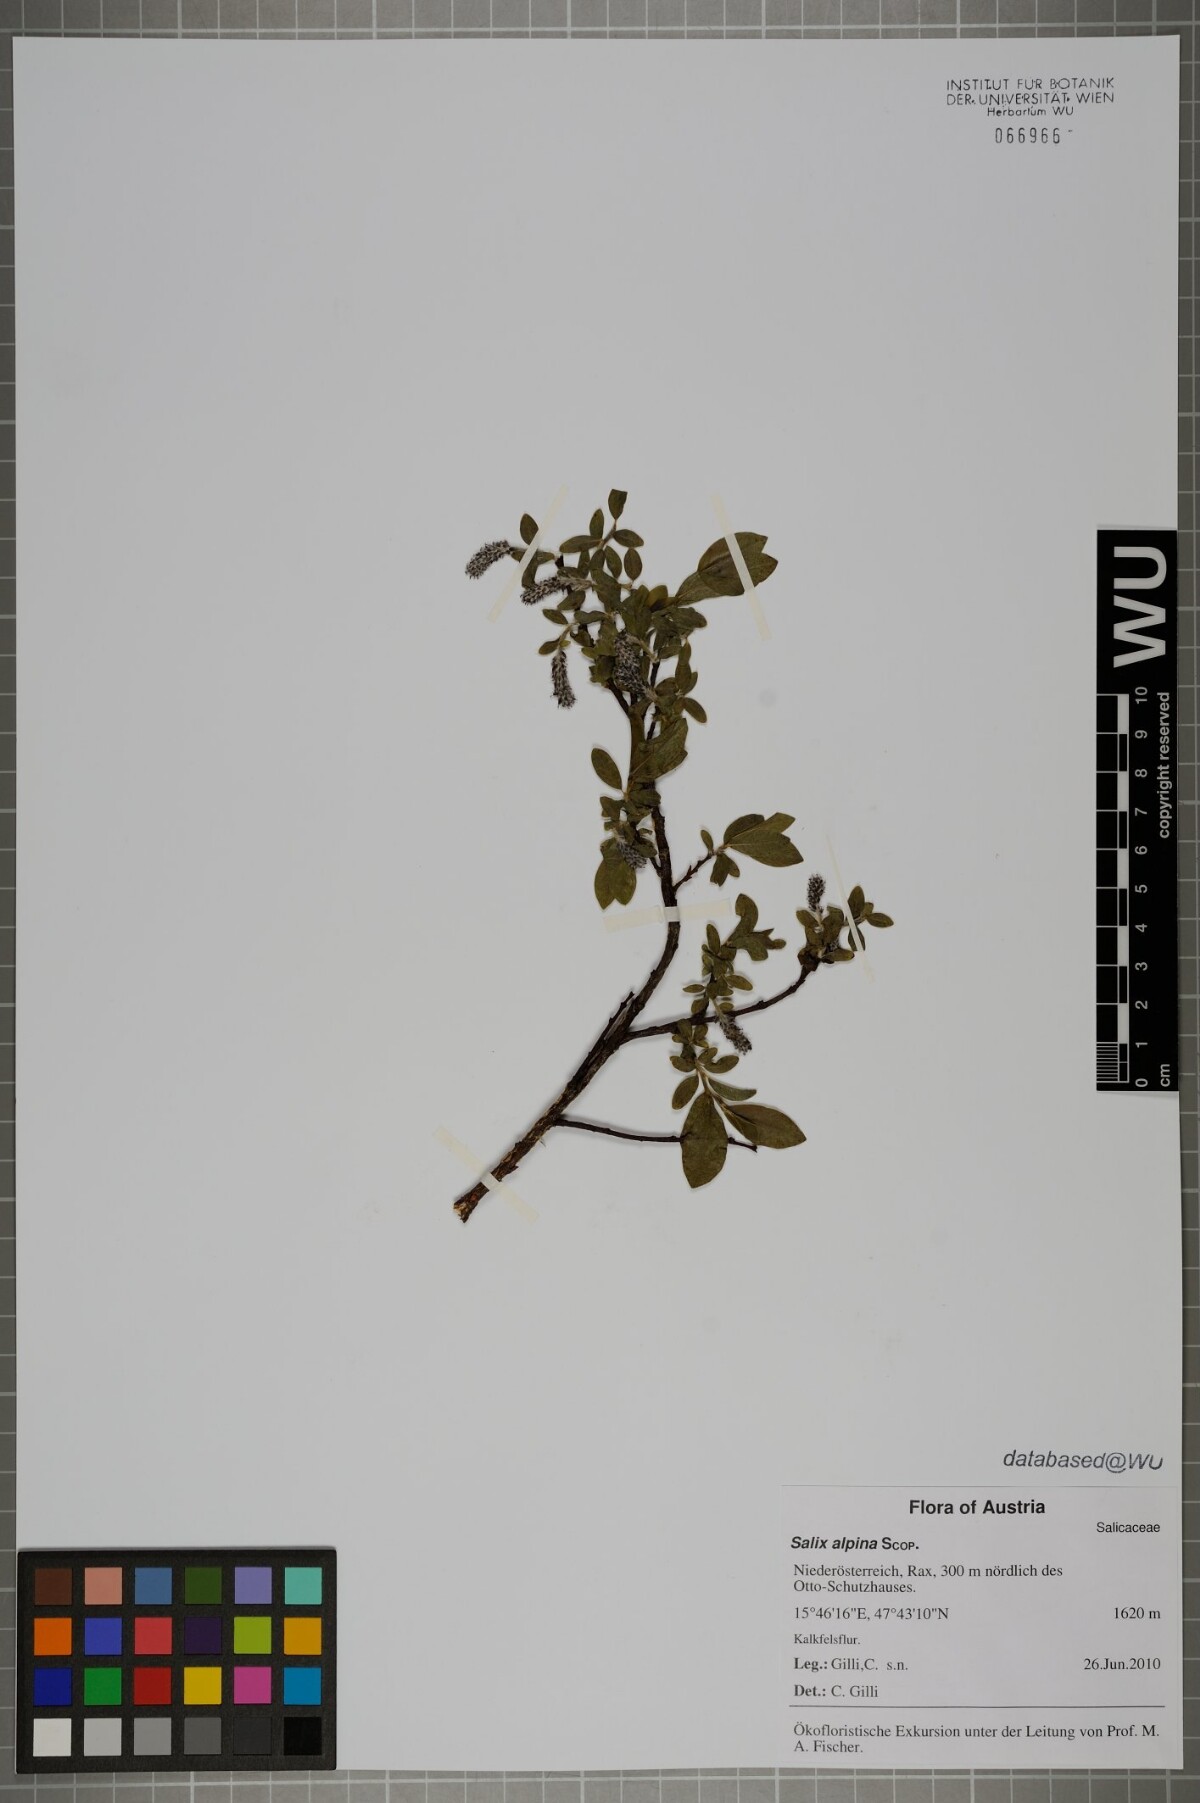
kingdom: Plantae
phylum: Tracheophyta
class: Magnoliopsida
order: Malpighiales
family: Salicaceae
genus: Salix
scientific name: Salix alpina
